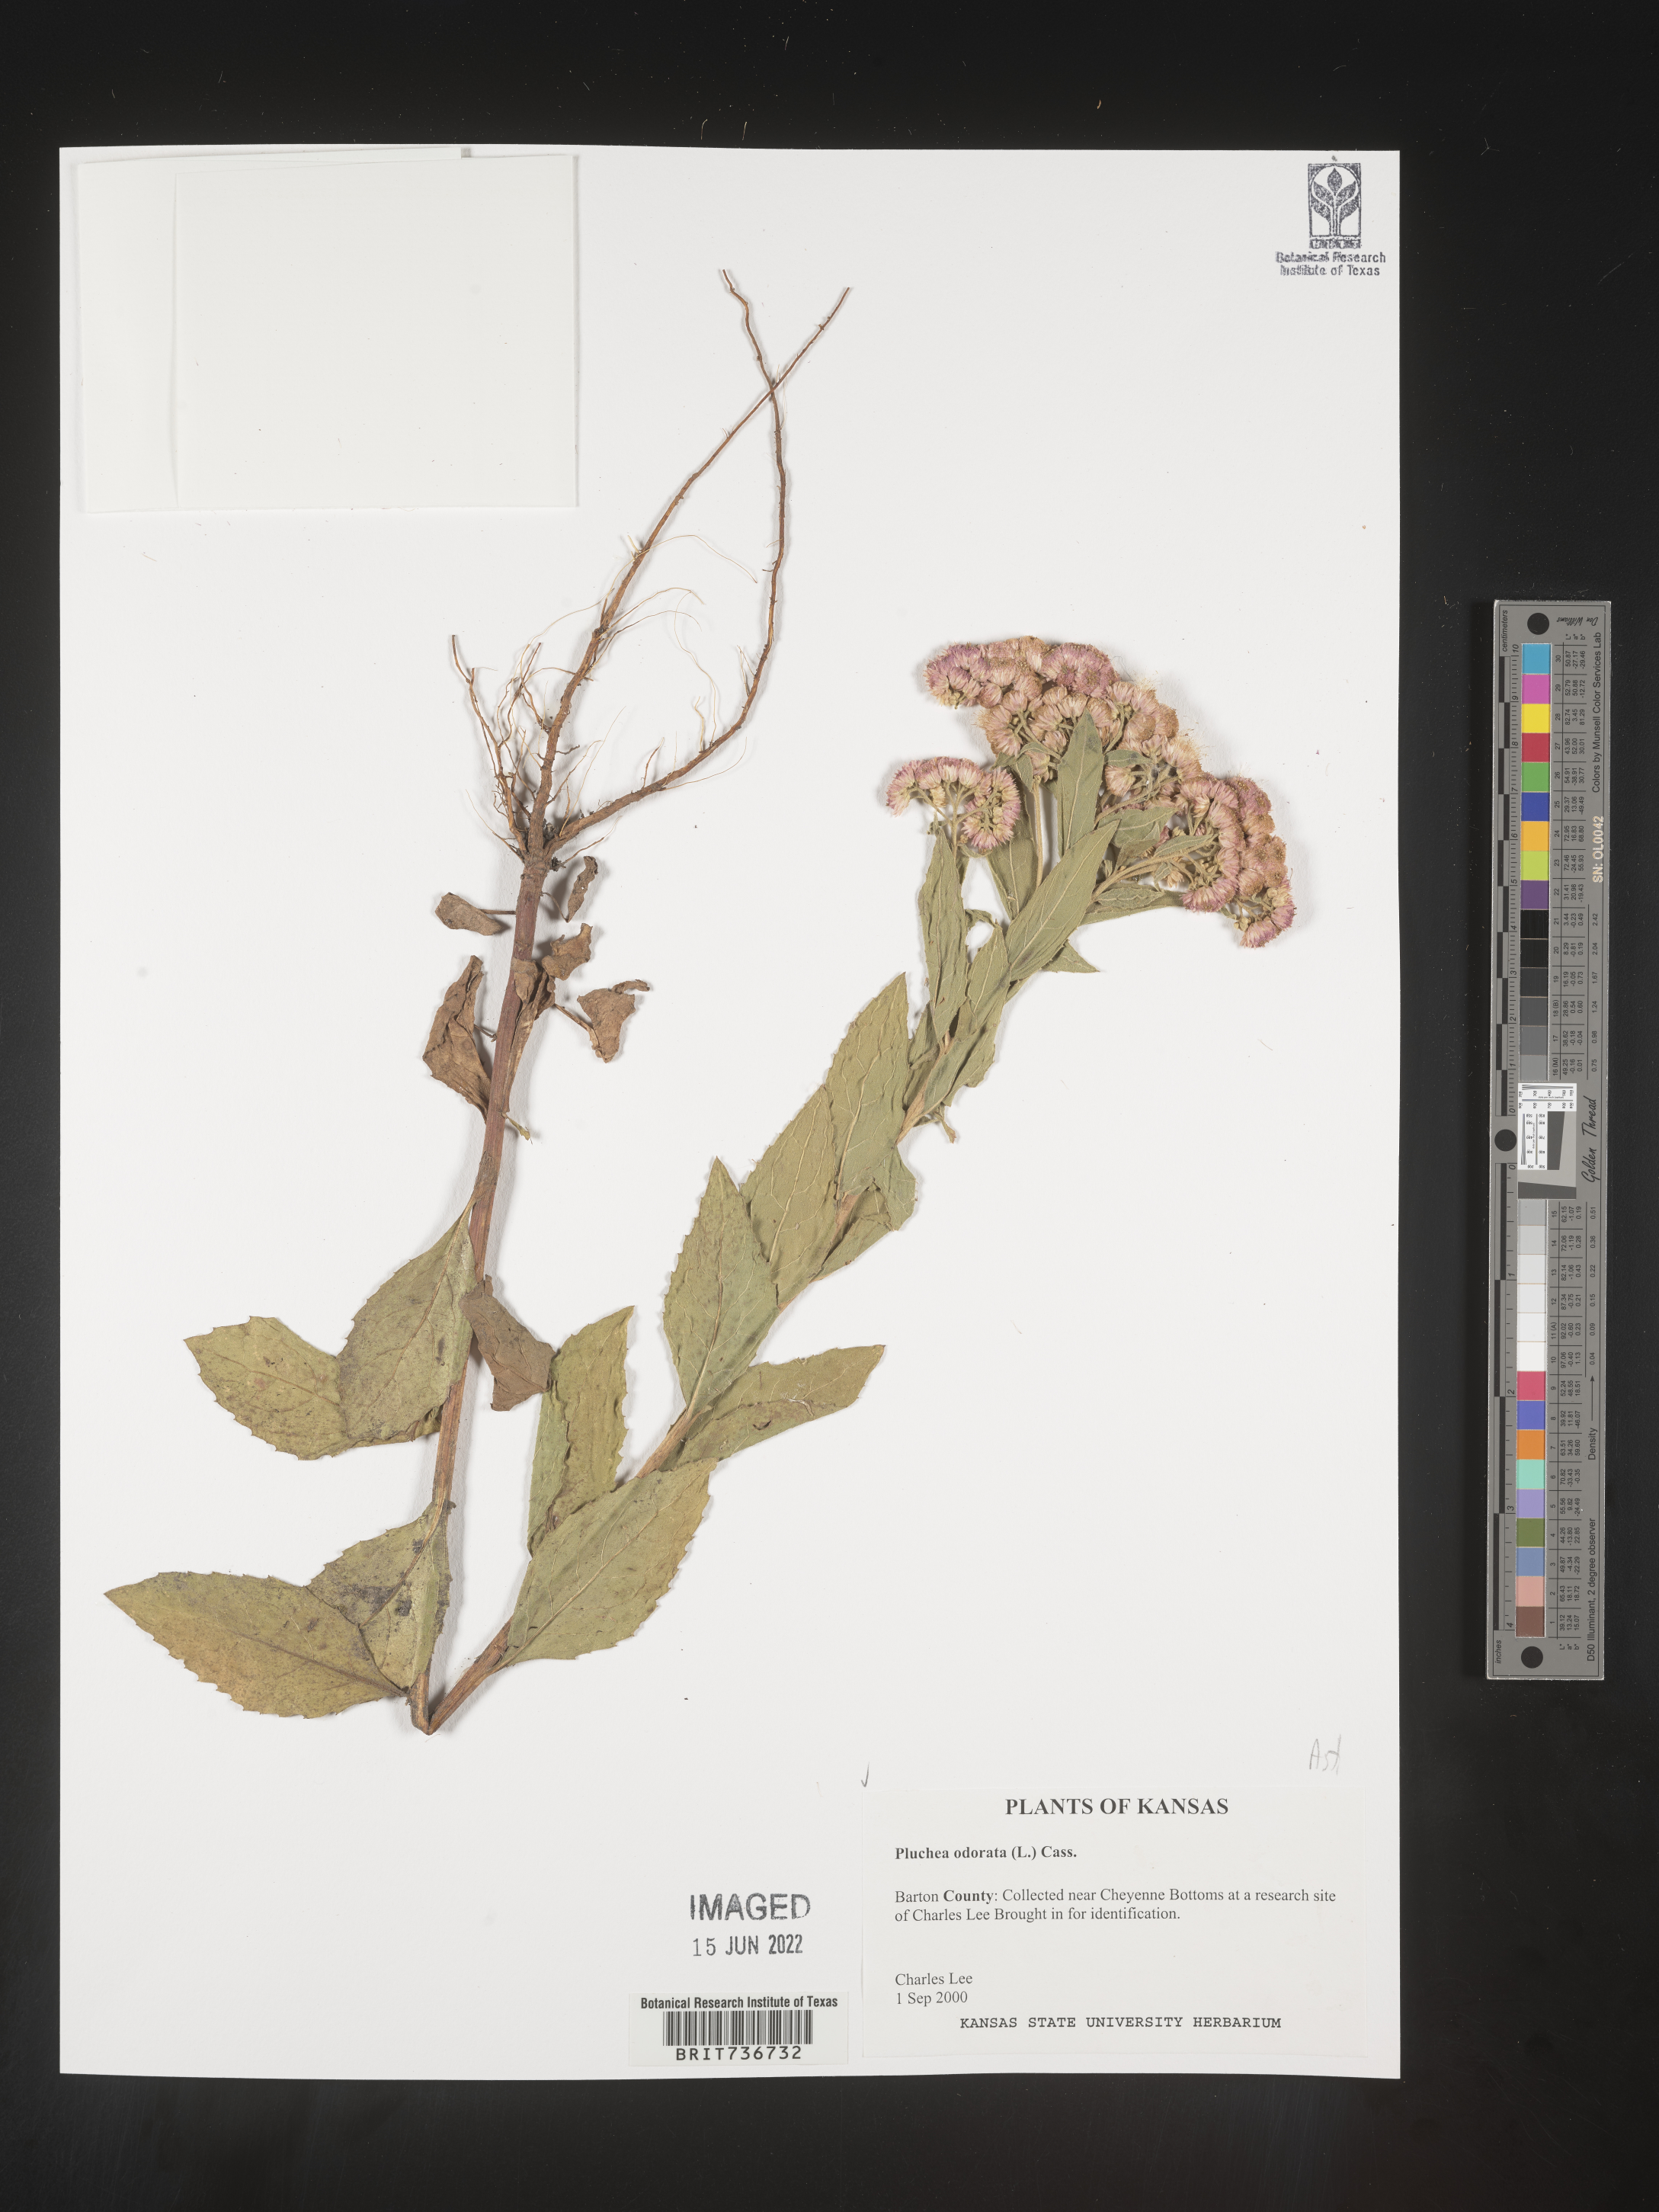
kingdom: Plantae
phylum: Tracheophyta
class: Magnoliopsida
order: Asterales
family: Asteraceae
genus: Pluchea
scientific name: Pluchea odorata
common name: Saltmarsh fleabane
